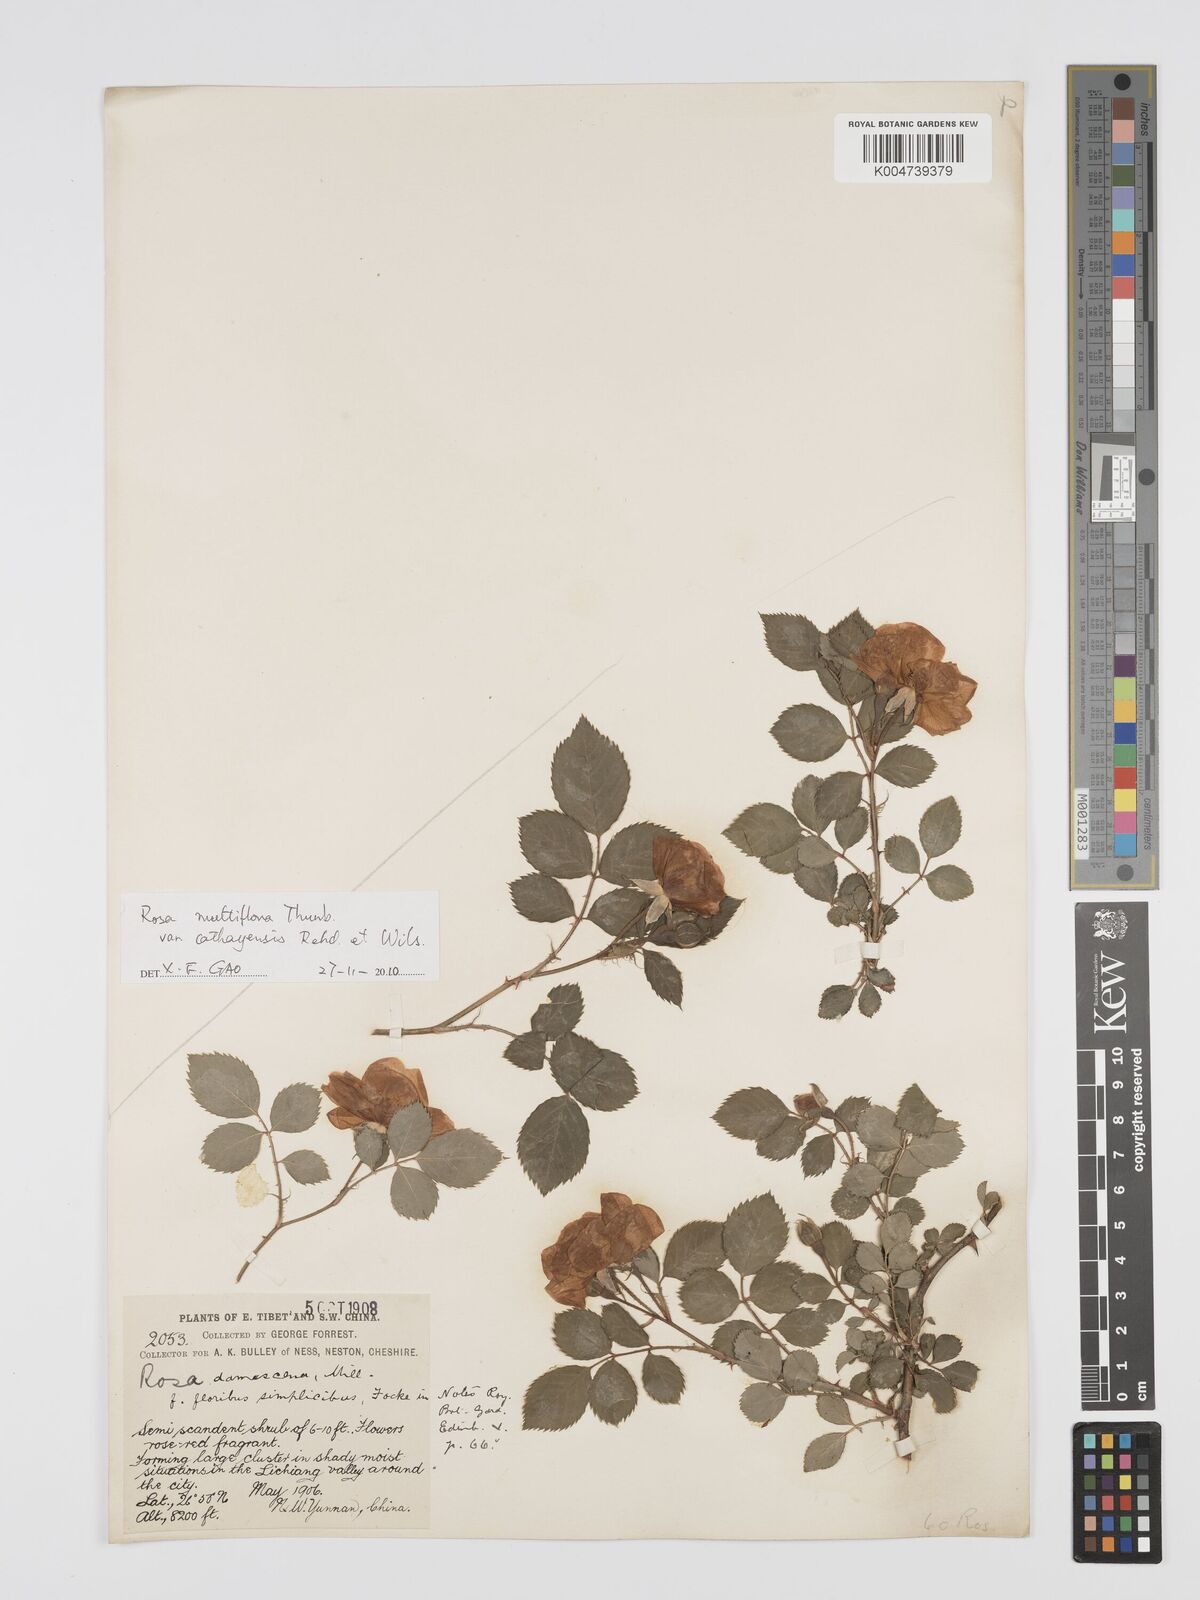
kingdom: Plantae
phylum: Tracheophyta
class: Magnoliopsida
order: Rosales
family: Rosaceae
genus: Rosa
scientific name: Rosa multiflora
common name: Multiflora rose
